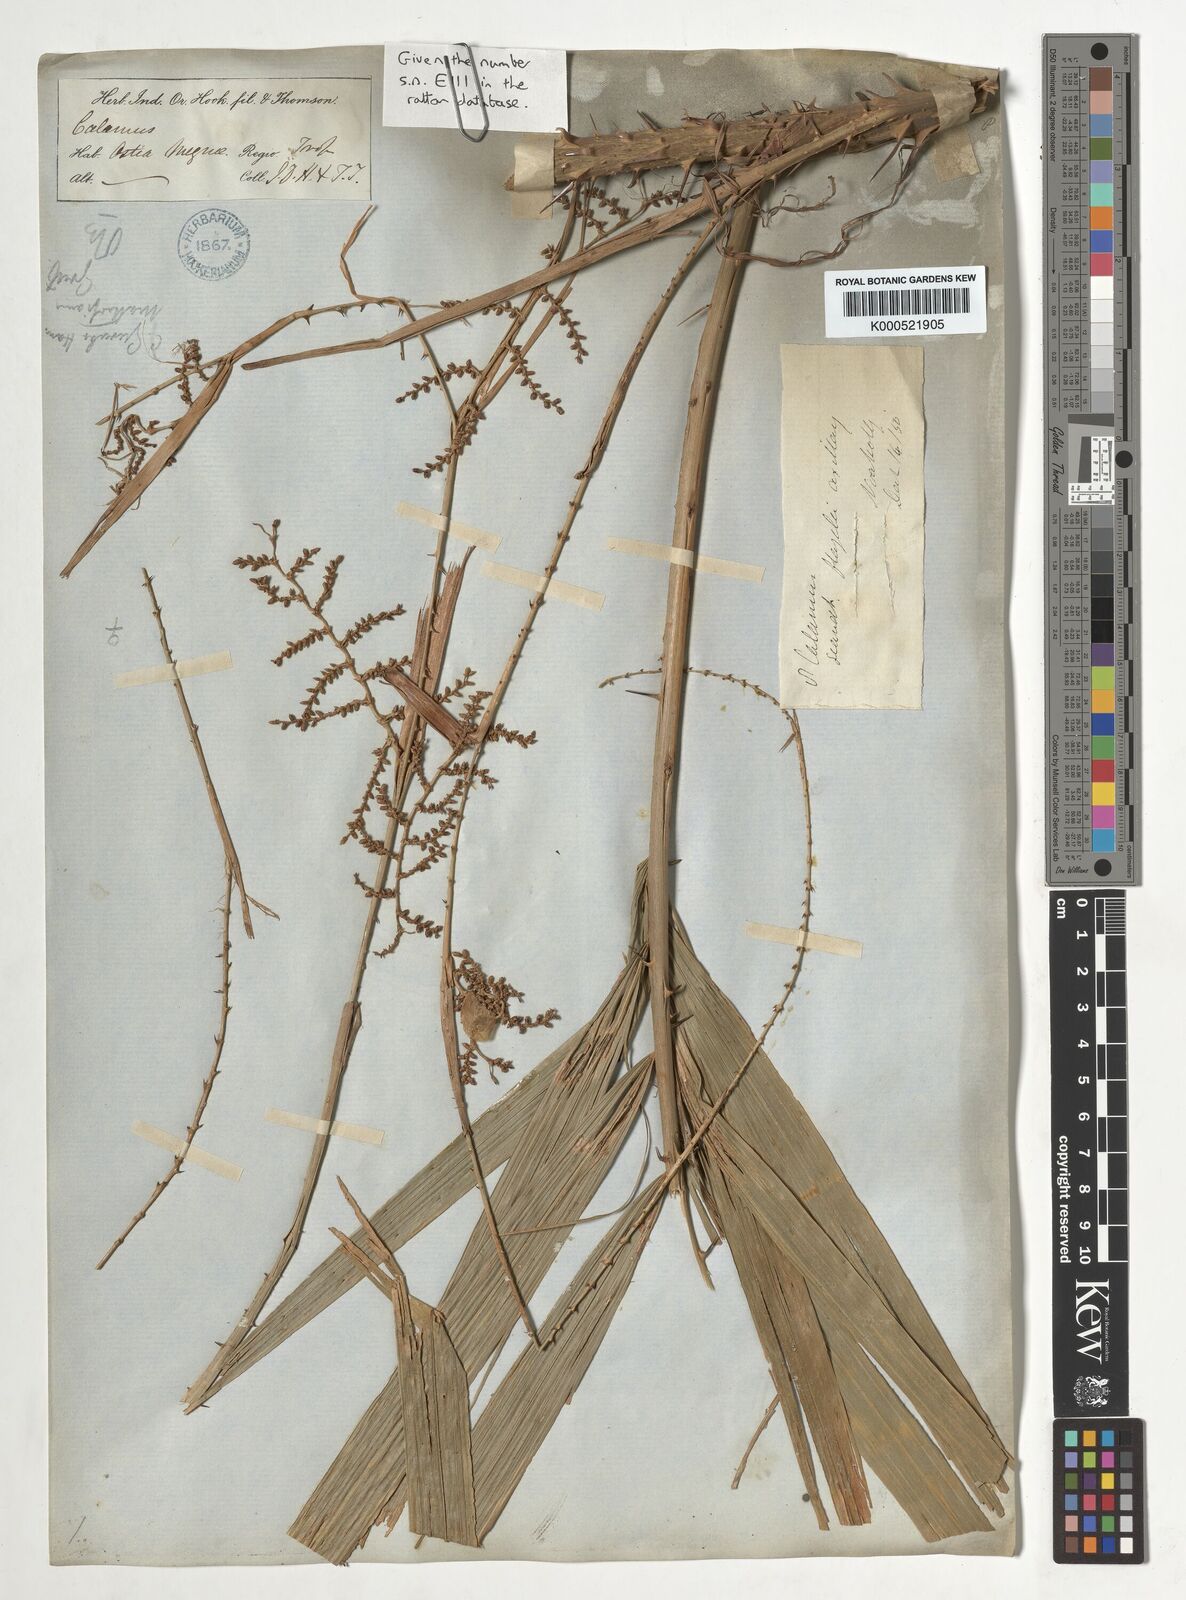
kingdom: Plantae
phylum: Tracheophyta
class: Liliopsida
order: Arecales
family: Arecaceae
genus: Calamus
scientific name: Calamus
